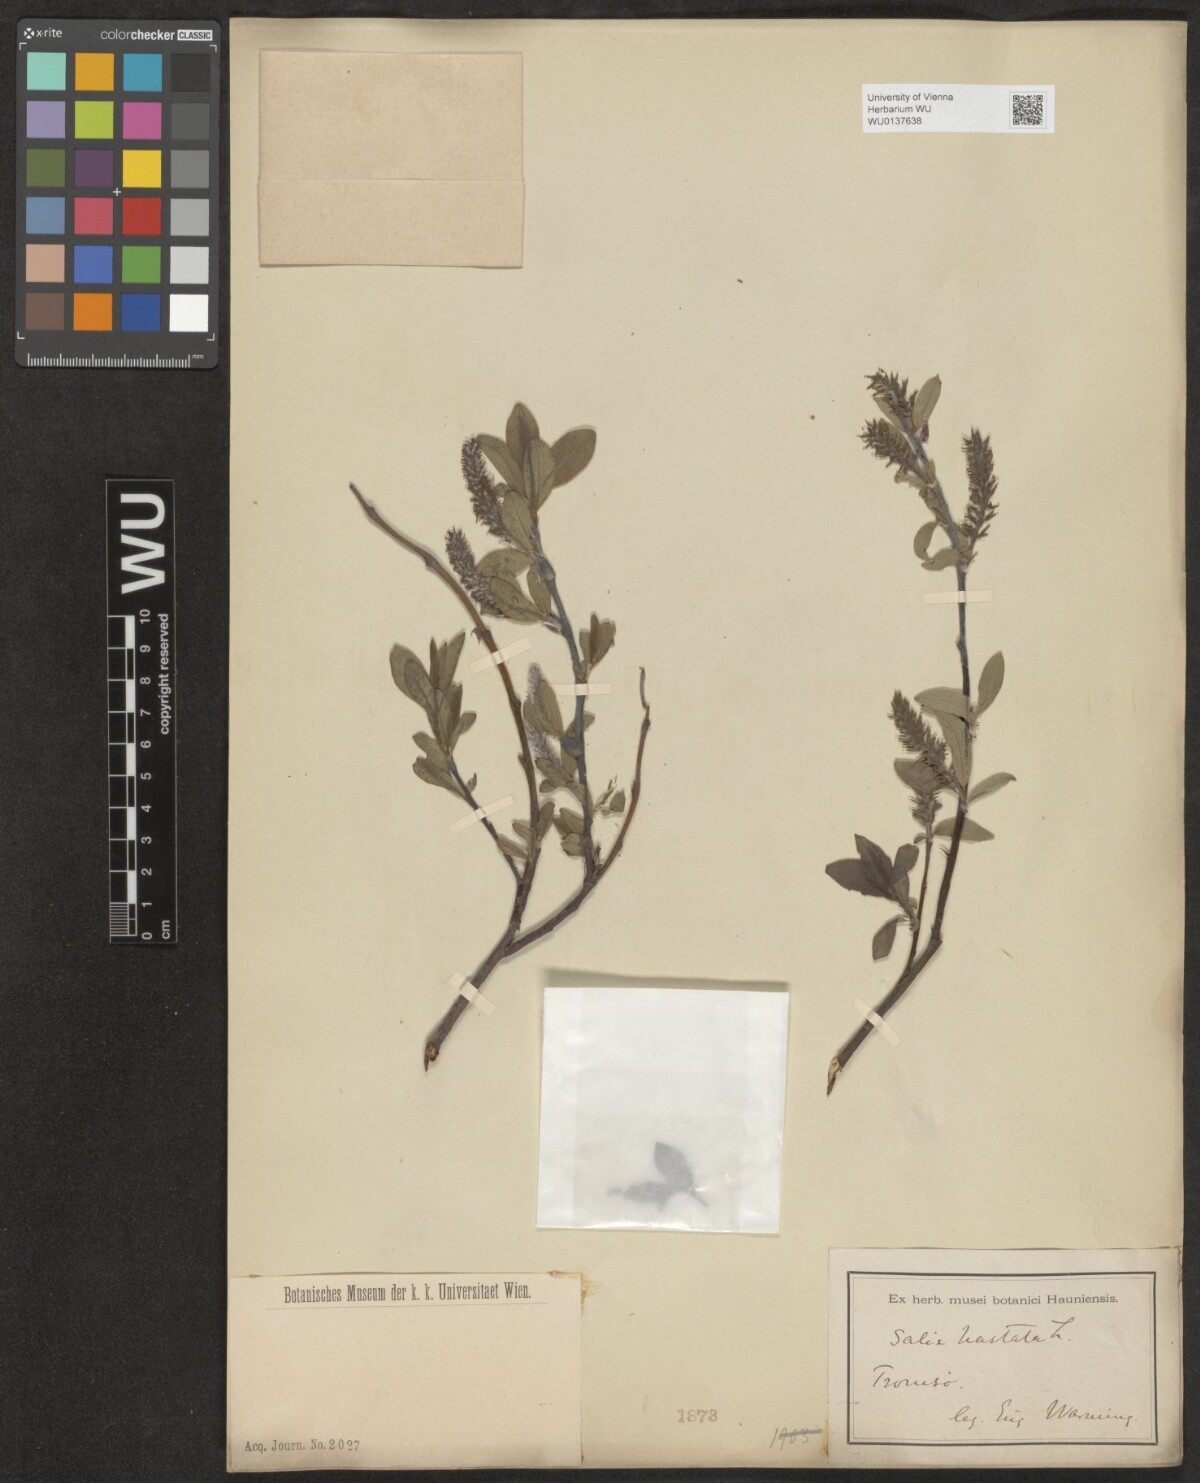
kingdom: Plantae
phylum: Tracheophyta
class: Magnoliopsida
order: Malpighiales
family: Salicaceae
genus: Salix
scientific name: Salix hastata
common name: Halberd willow
